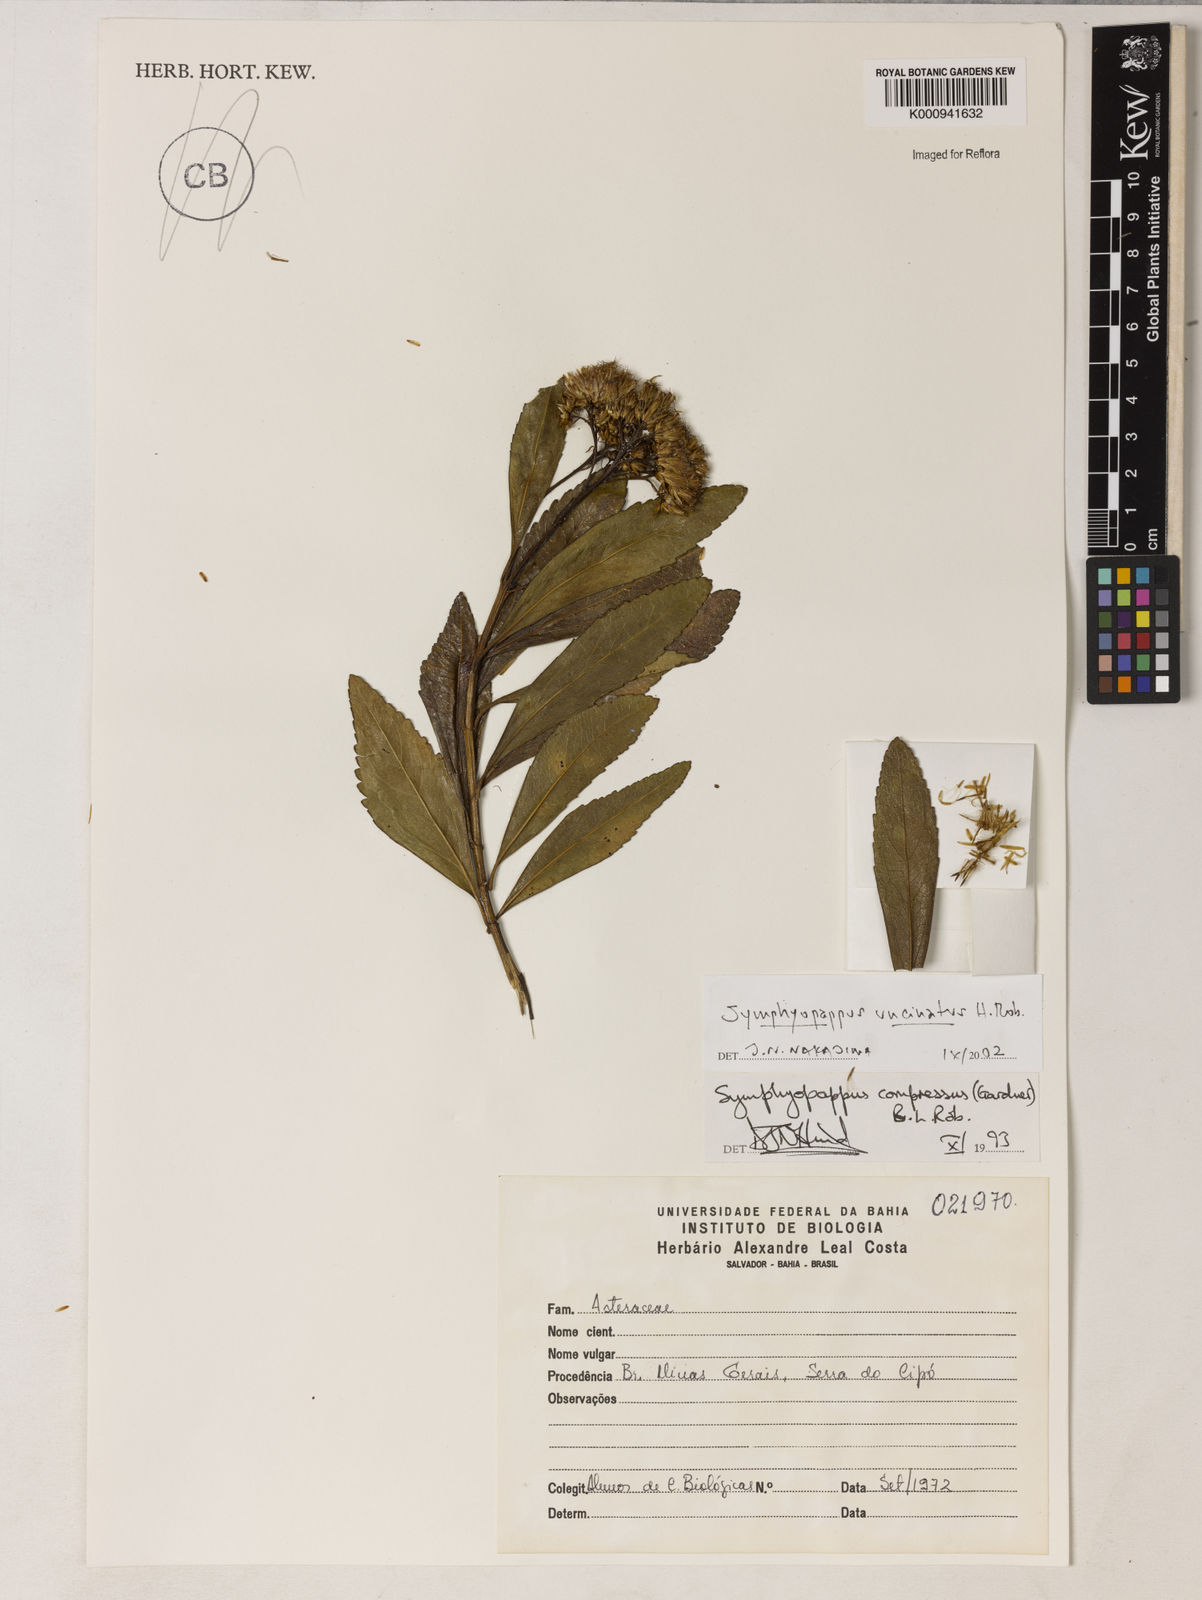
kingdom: Plantae
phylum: Tracheophyta
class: Magnoliopsida
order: Asterales
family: Asteraceae
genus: Symphyopappus
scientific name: Symphyopappus uncinatus
